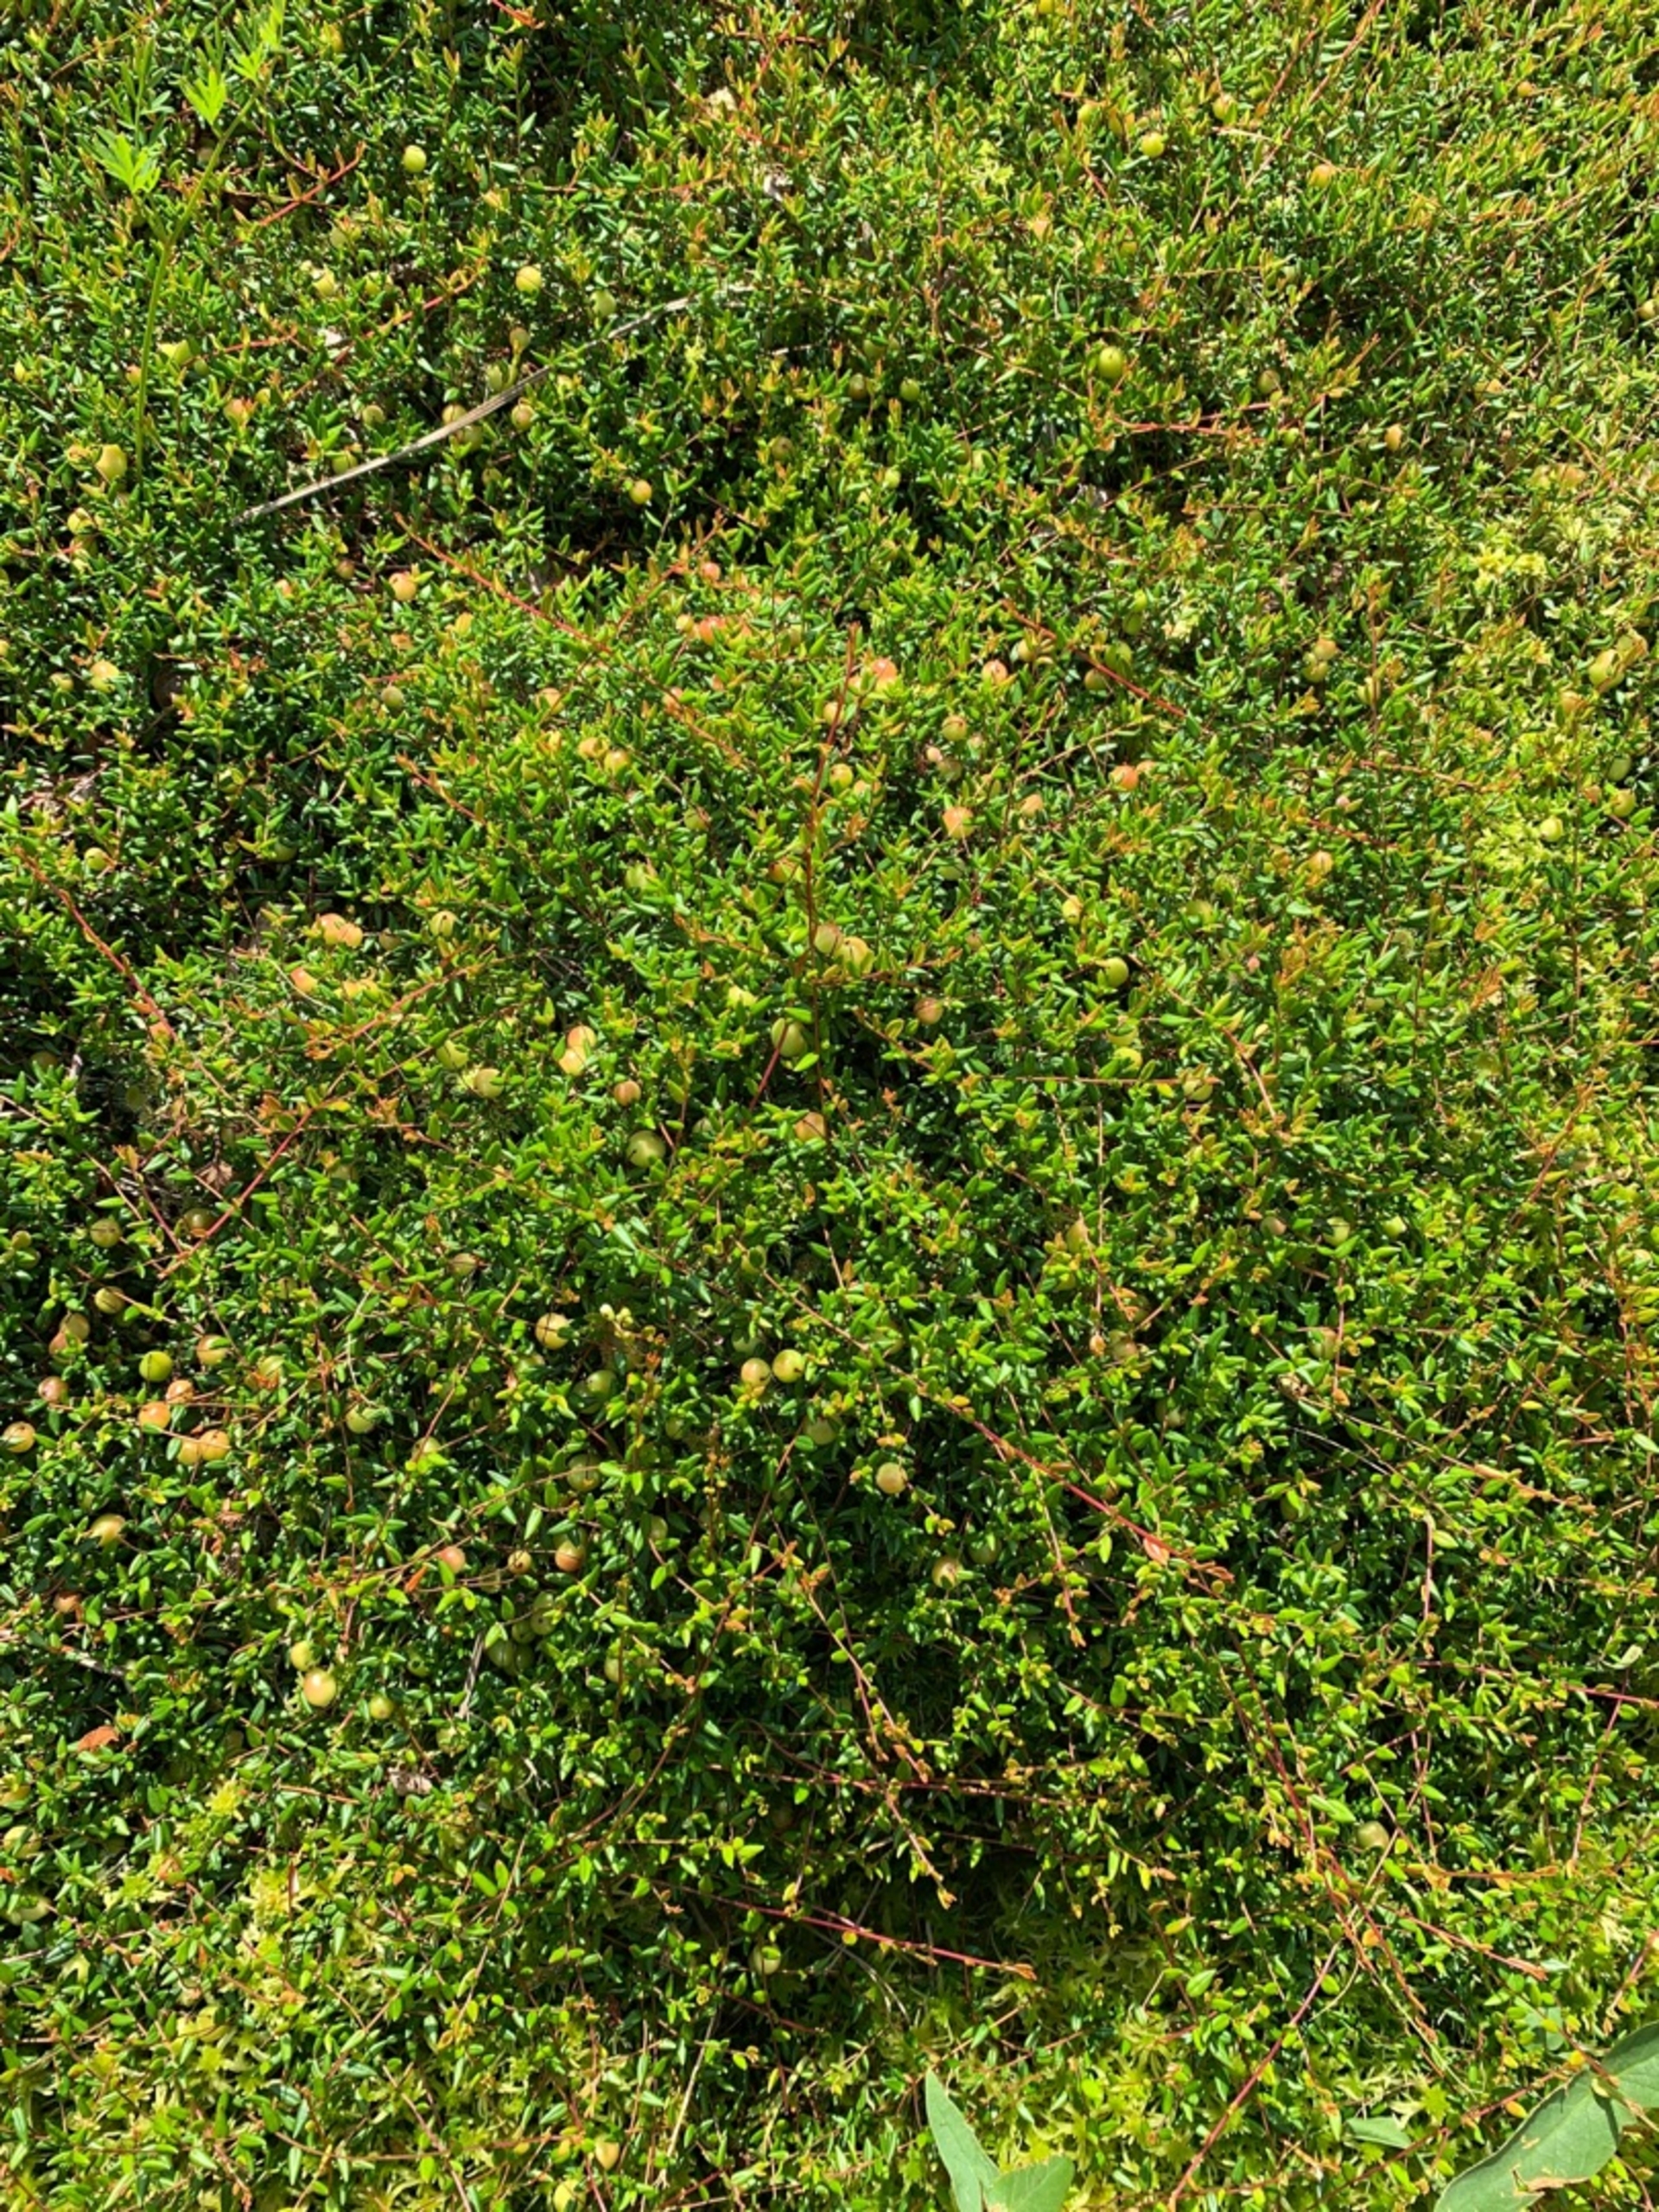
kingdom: Plantae
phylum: Tracheophyta
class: Magnoliopsida
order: Ericales
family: Ericaceae
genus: Vaccinium
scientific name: Vaccinium oxycoccos
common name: Tranebær
